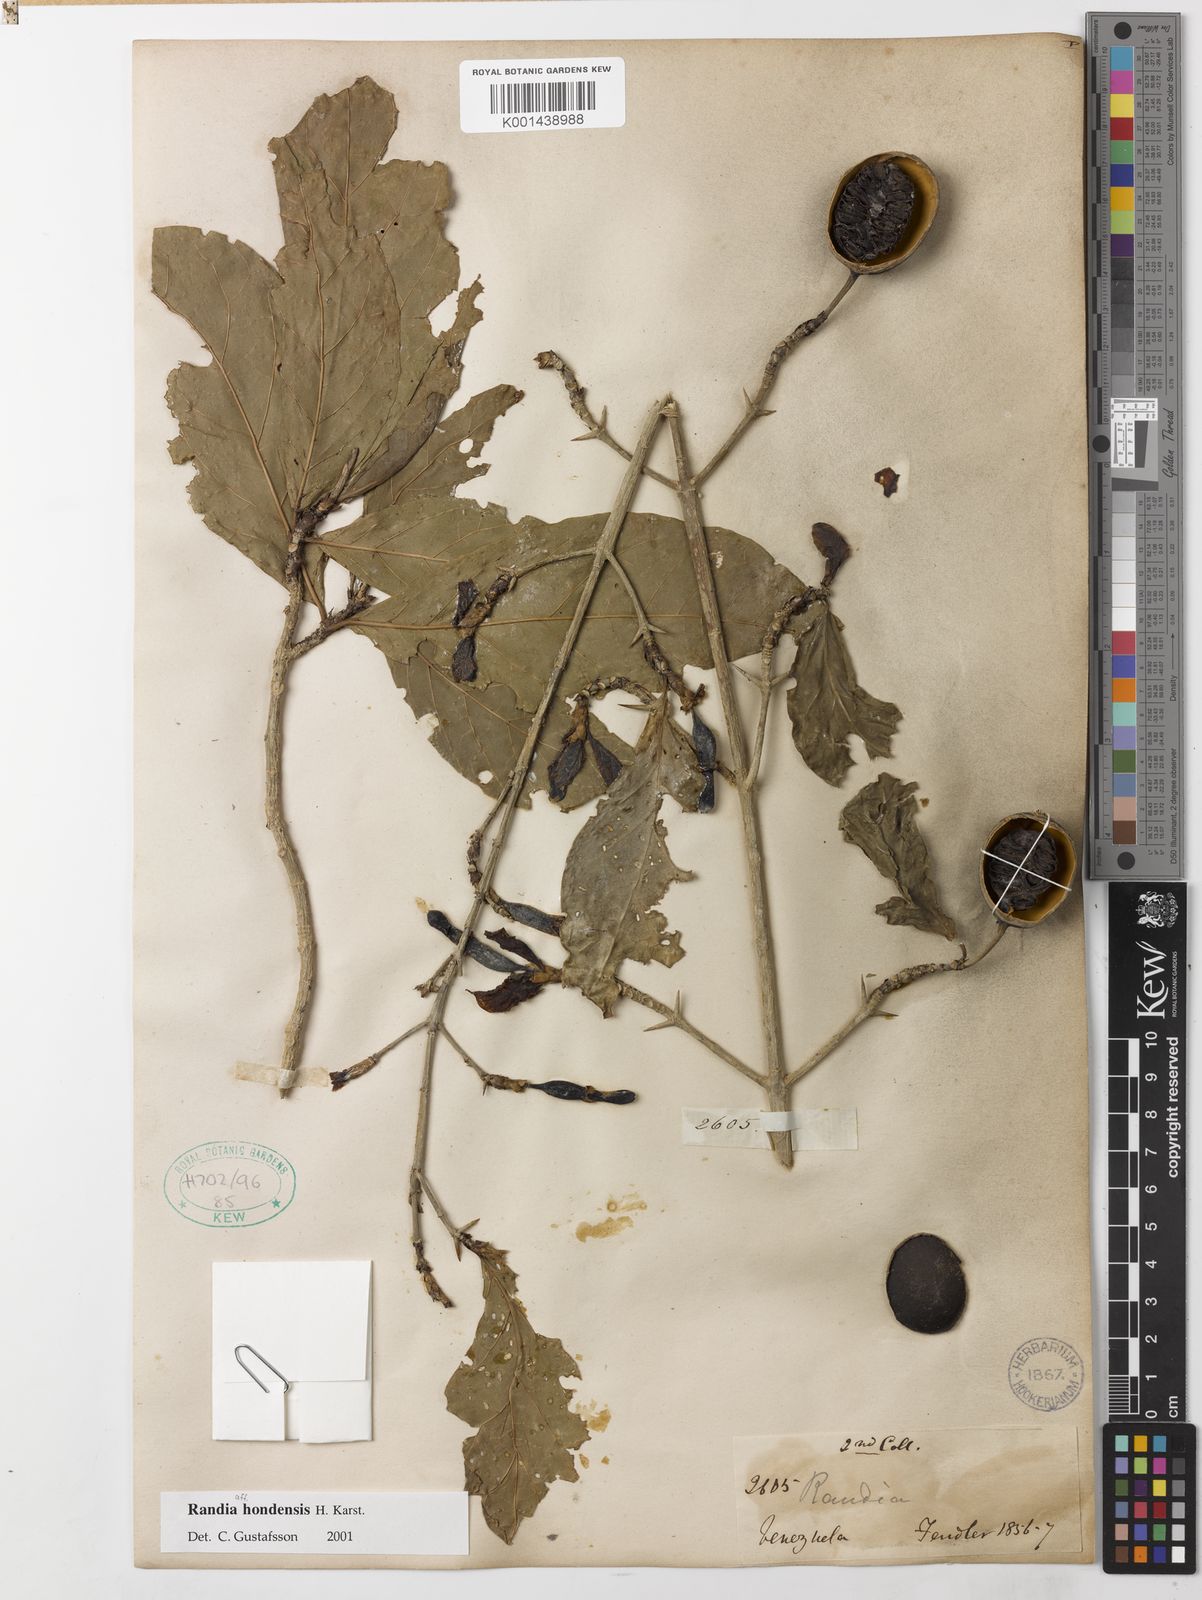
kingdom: Plantae
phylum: Tracheophyta
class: Magnoliopsida
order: Gentianales
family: Rubiaceae
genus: Randia
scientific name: Randia hondensis
